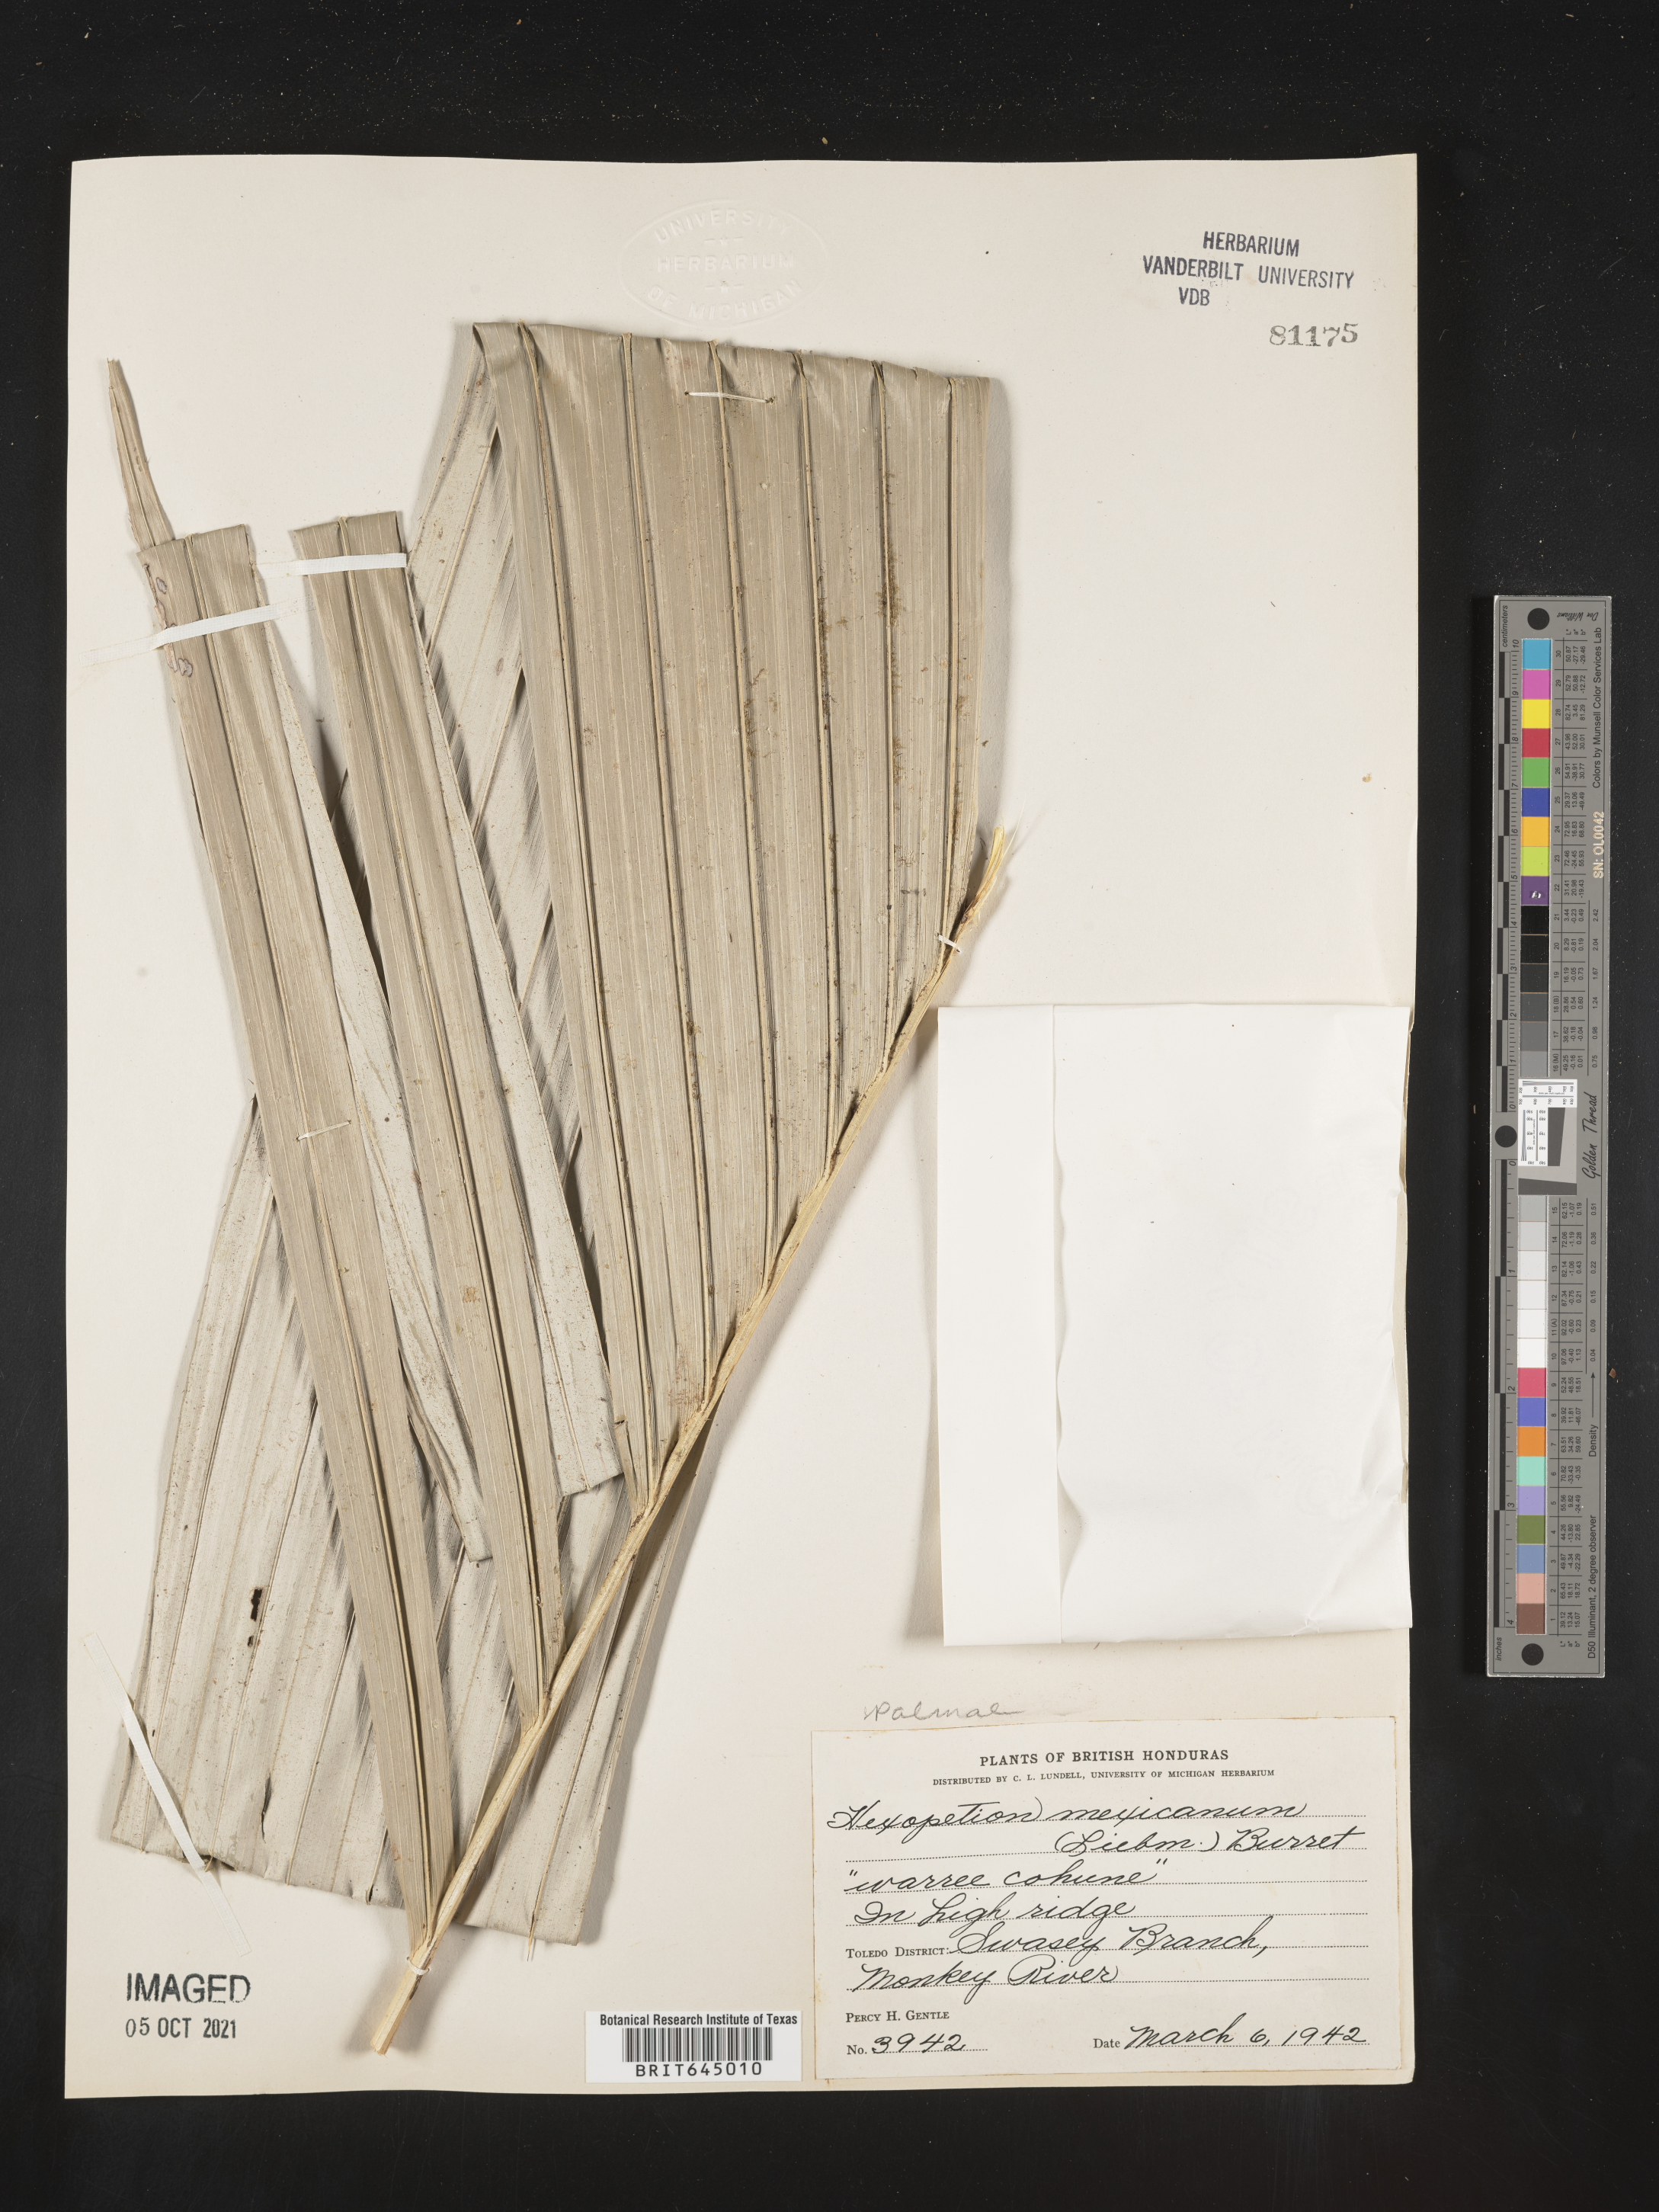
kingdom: Plantae
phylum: Tracheophyta
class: Liliopsida
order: Arecales
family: Arecaceae
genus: Astrocaryum
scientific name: Astrocaryum mexicanum
